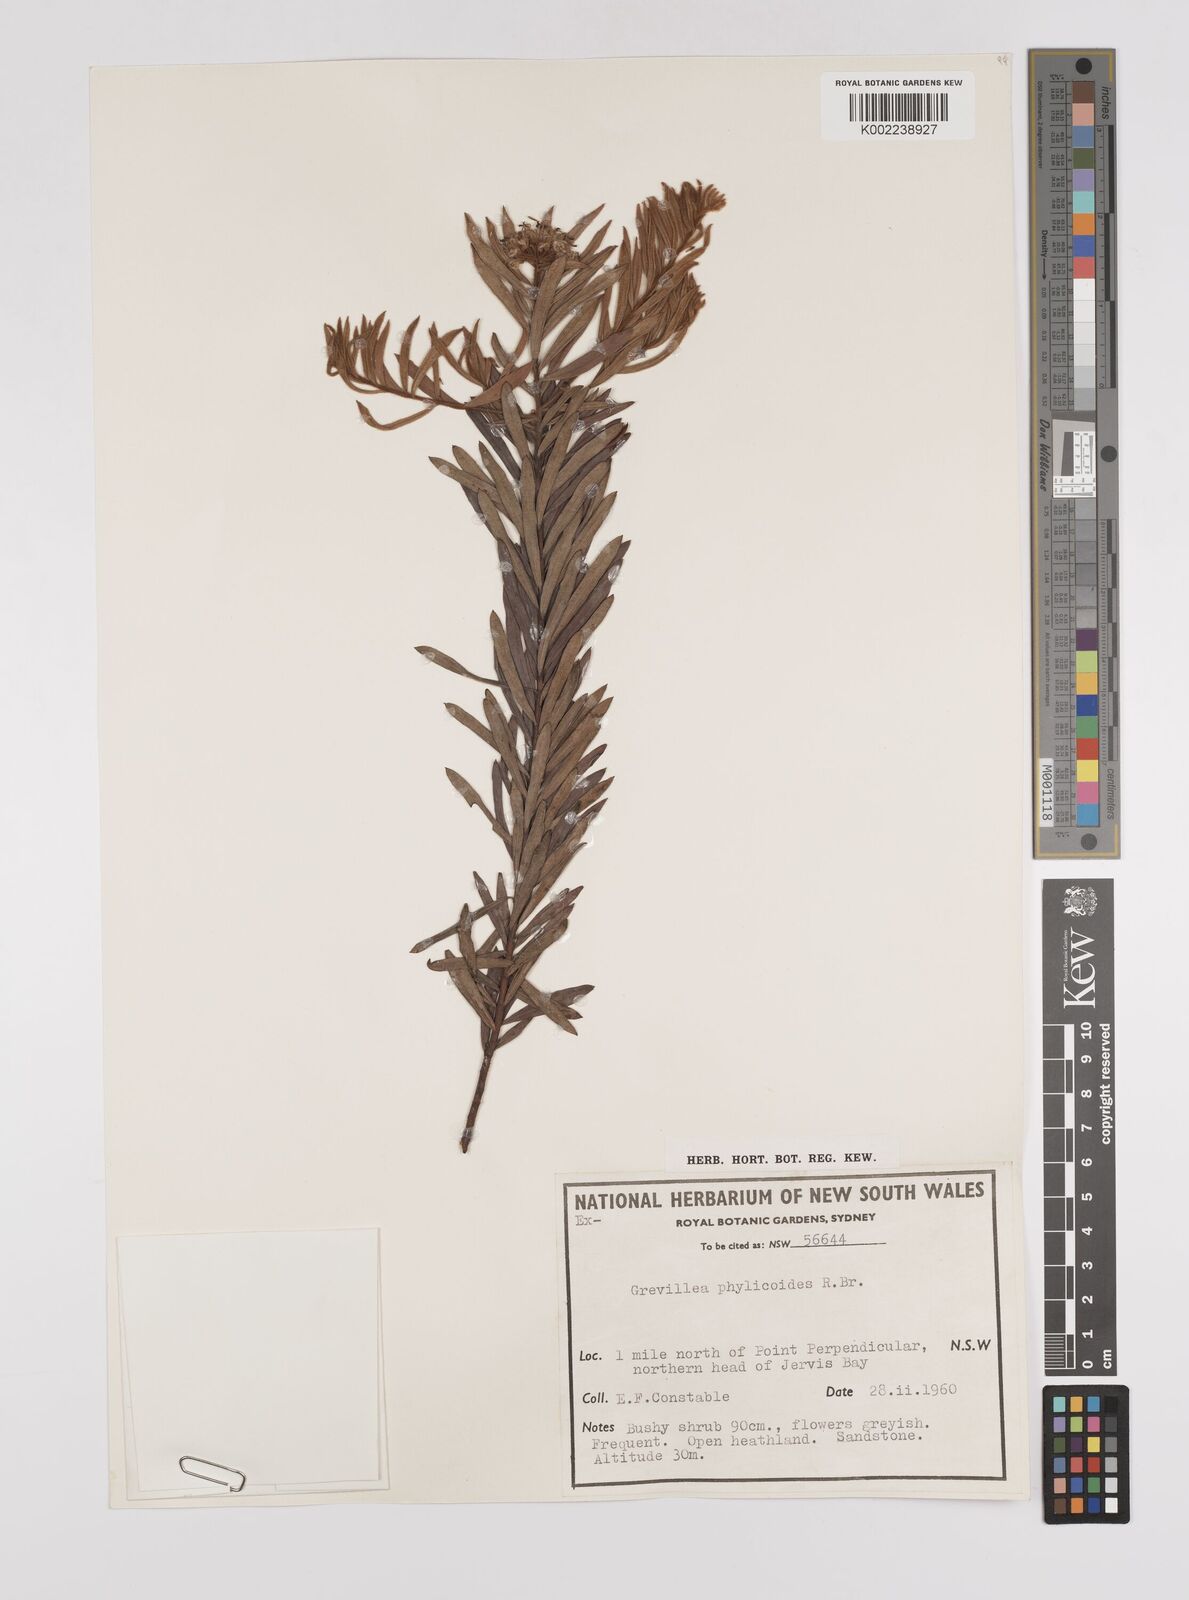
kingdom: Plantae
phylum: Tracheophyta
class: Magnoliopsida
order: Proteales
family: Proteaceae
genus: Grevillea
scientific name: Grevillea phylicoides
